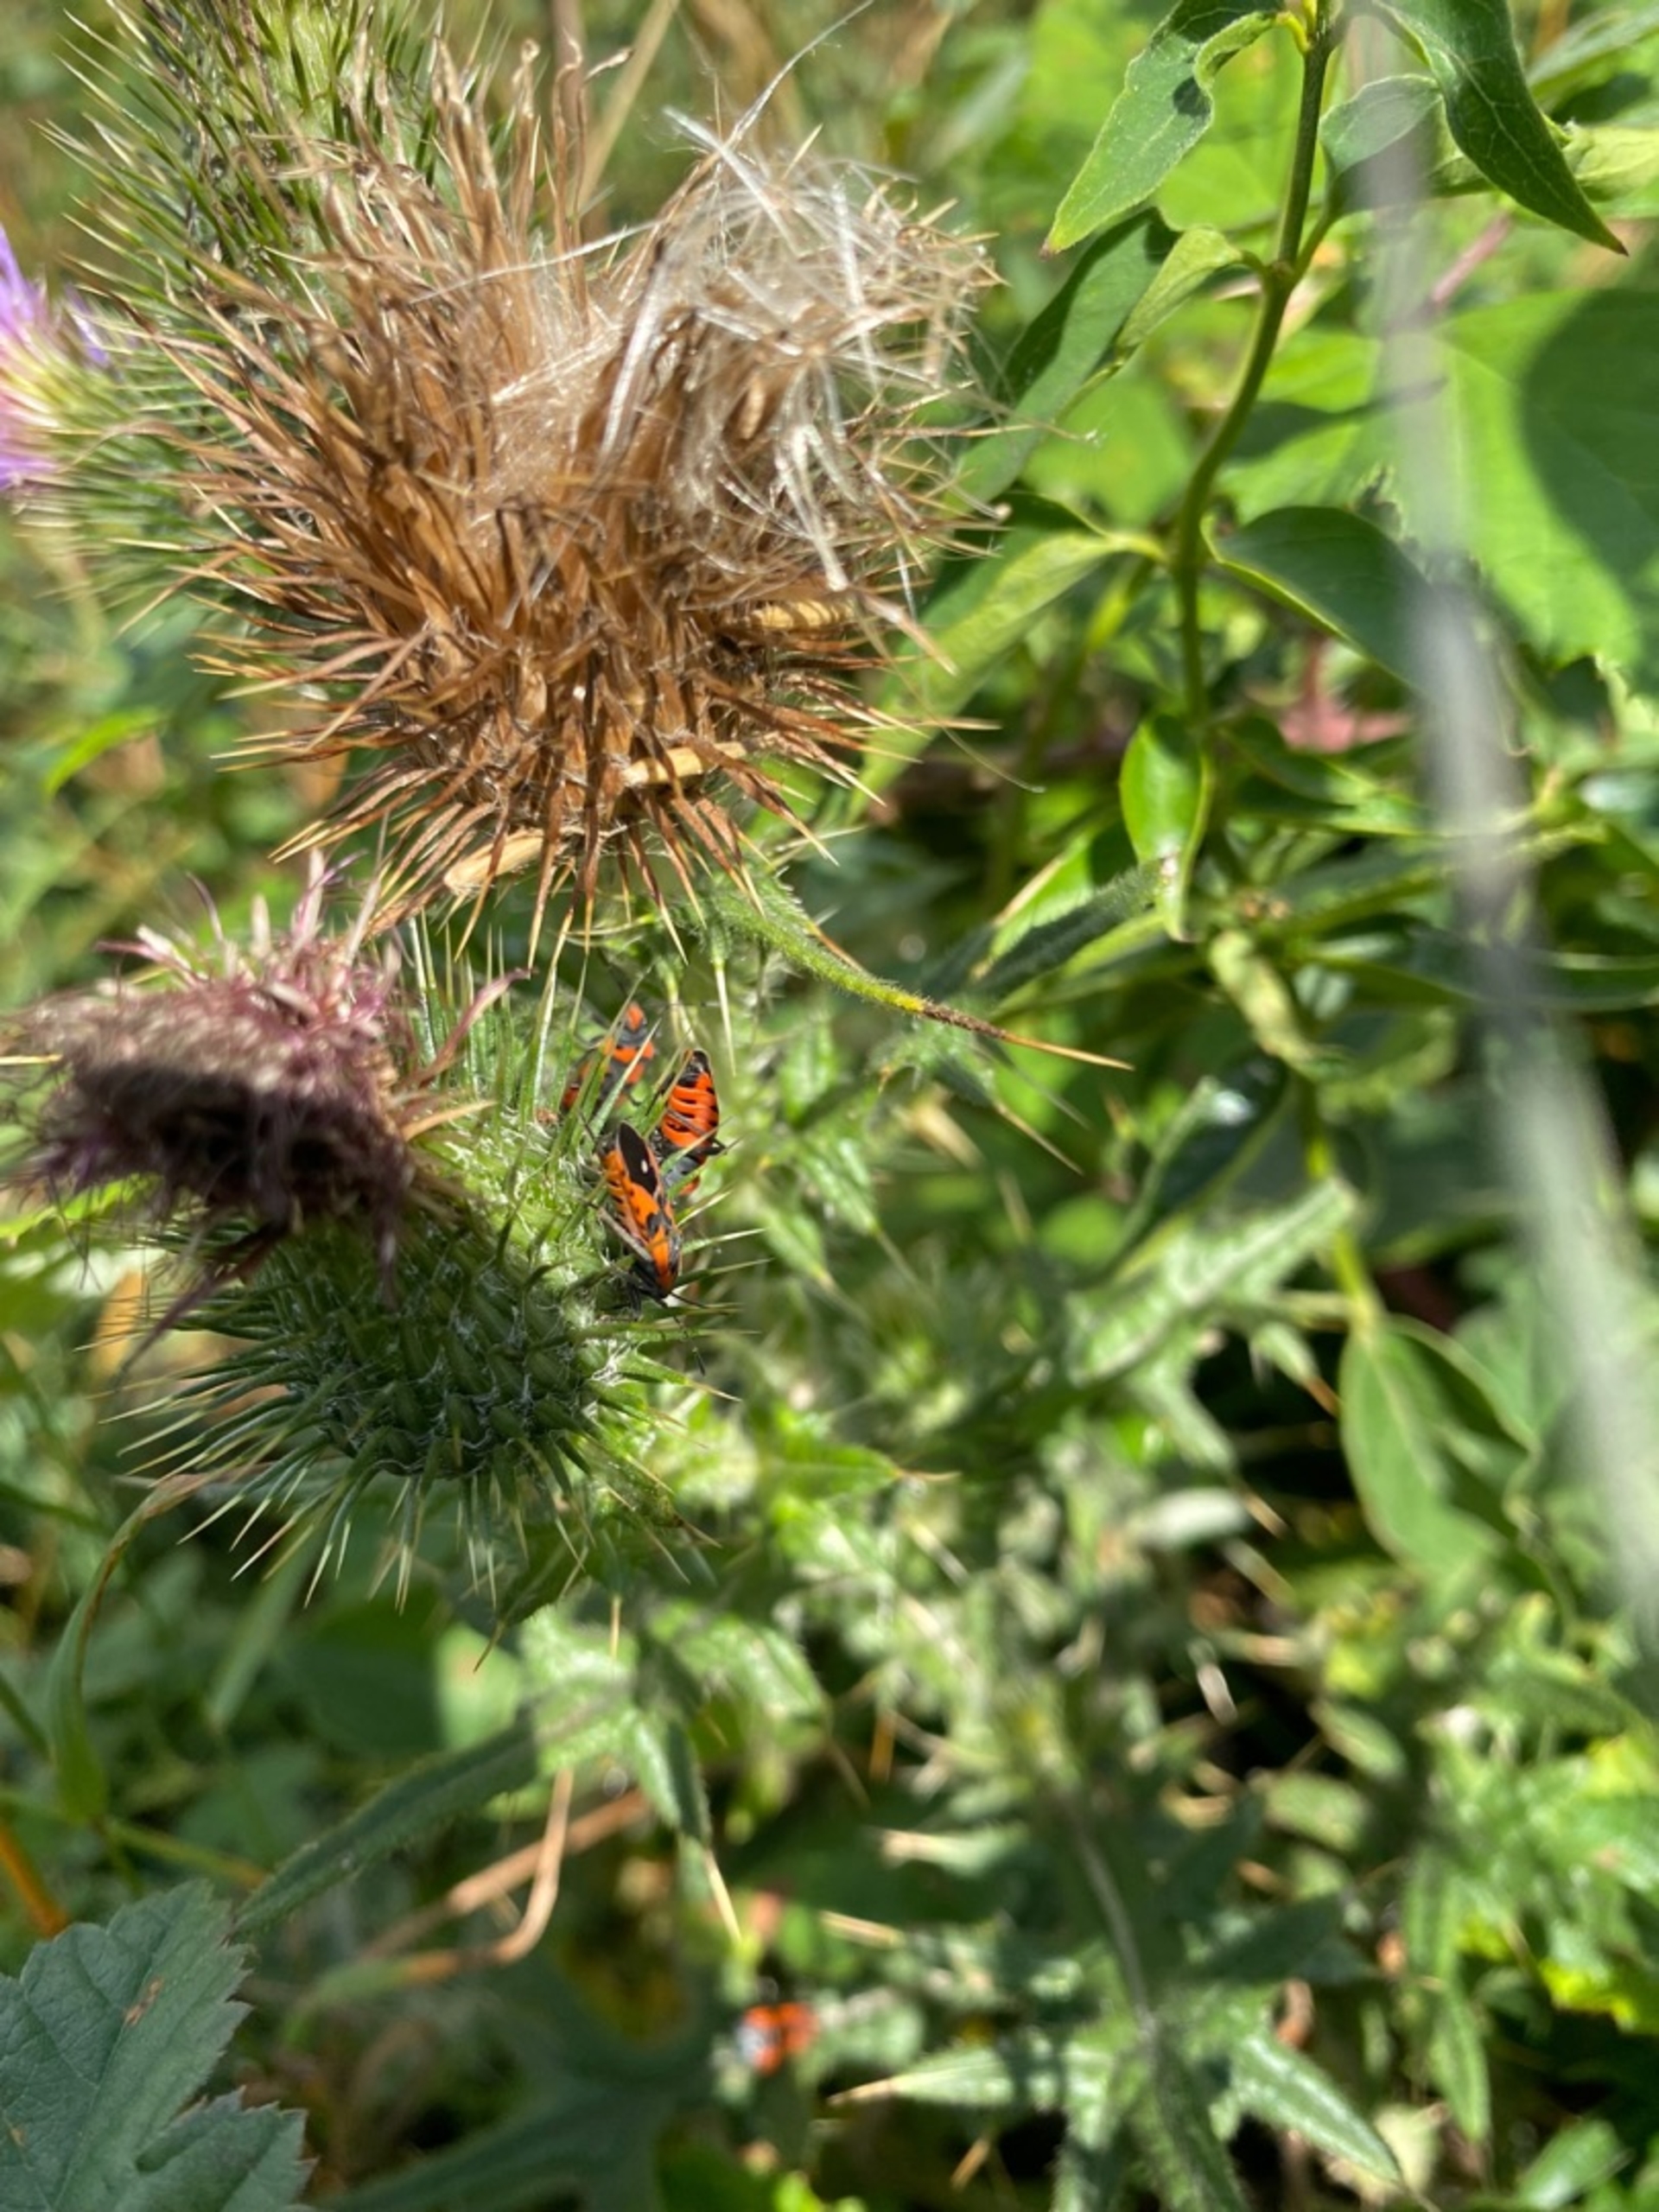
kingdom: Animalia
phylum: Arthropoda
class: Insecta
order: Hemiptera
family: Lygaeidae
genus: Lygaeus
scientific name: Lygaeus equestris
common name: Soldatertæge
